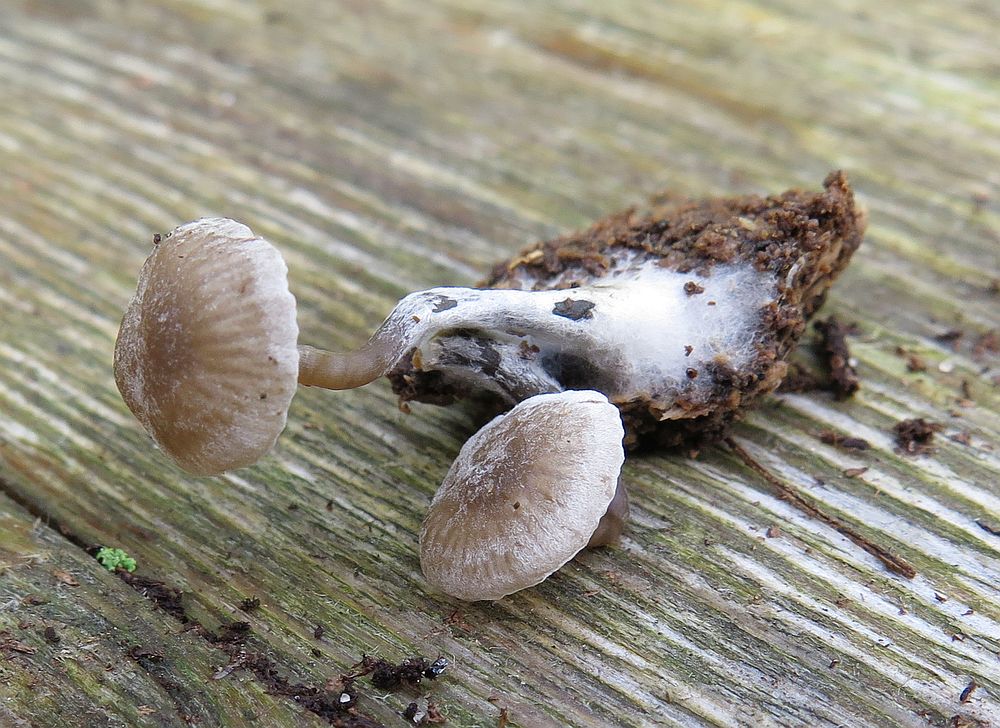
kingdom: Fungi
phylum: Basidiomycota
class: Agaricomycetes
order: Agaricales
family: Tricholomataceae
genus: Omphalina
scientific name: Omphalina microsperma
